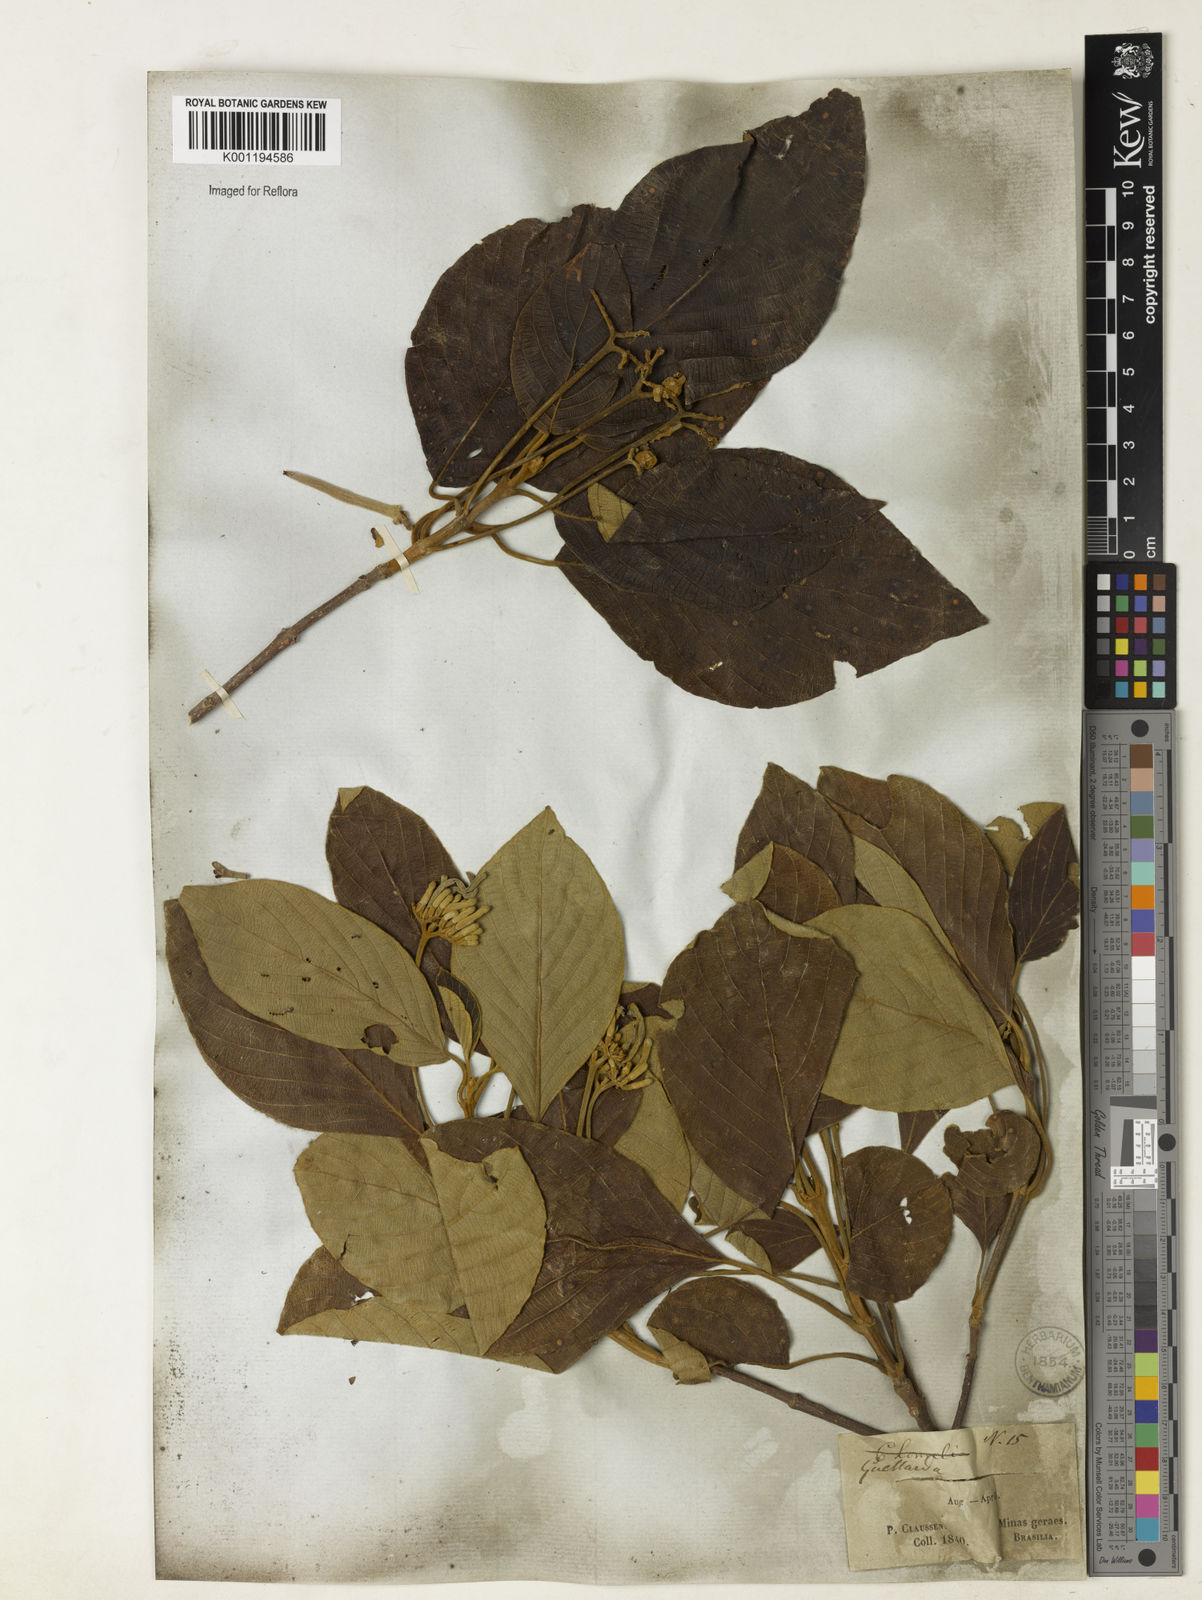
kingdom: Plantae
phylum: Tracheophyta
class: Magnoliopsida
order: Gentianales
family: Rubiaceae
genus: Guettarda
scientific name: Guettarda viburnoides
